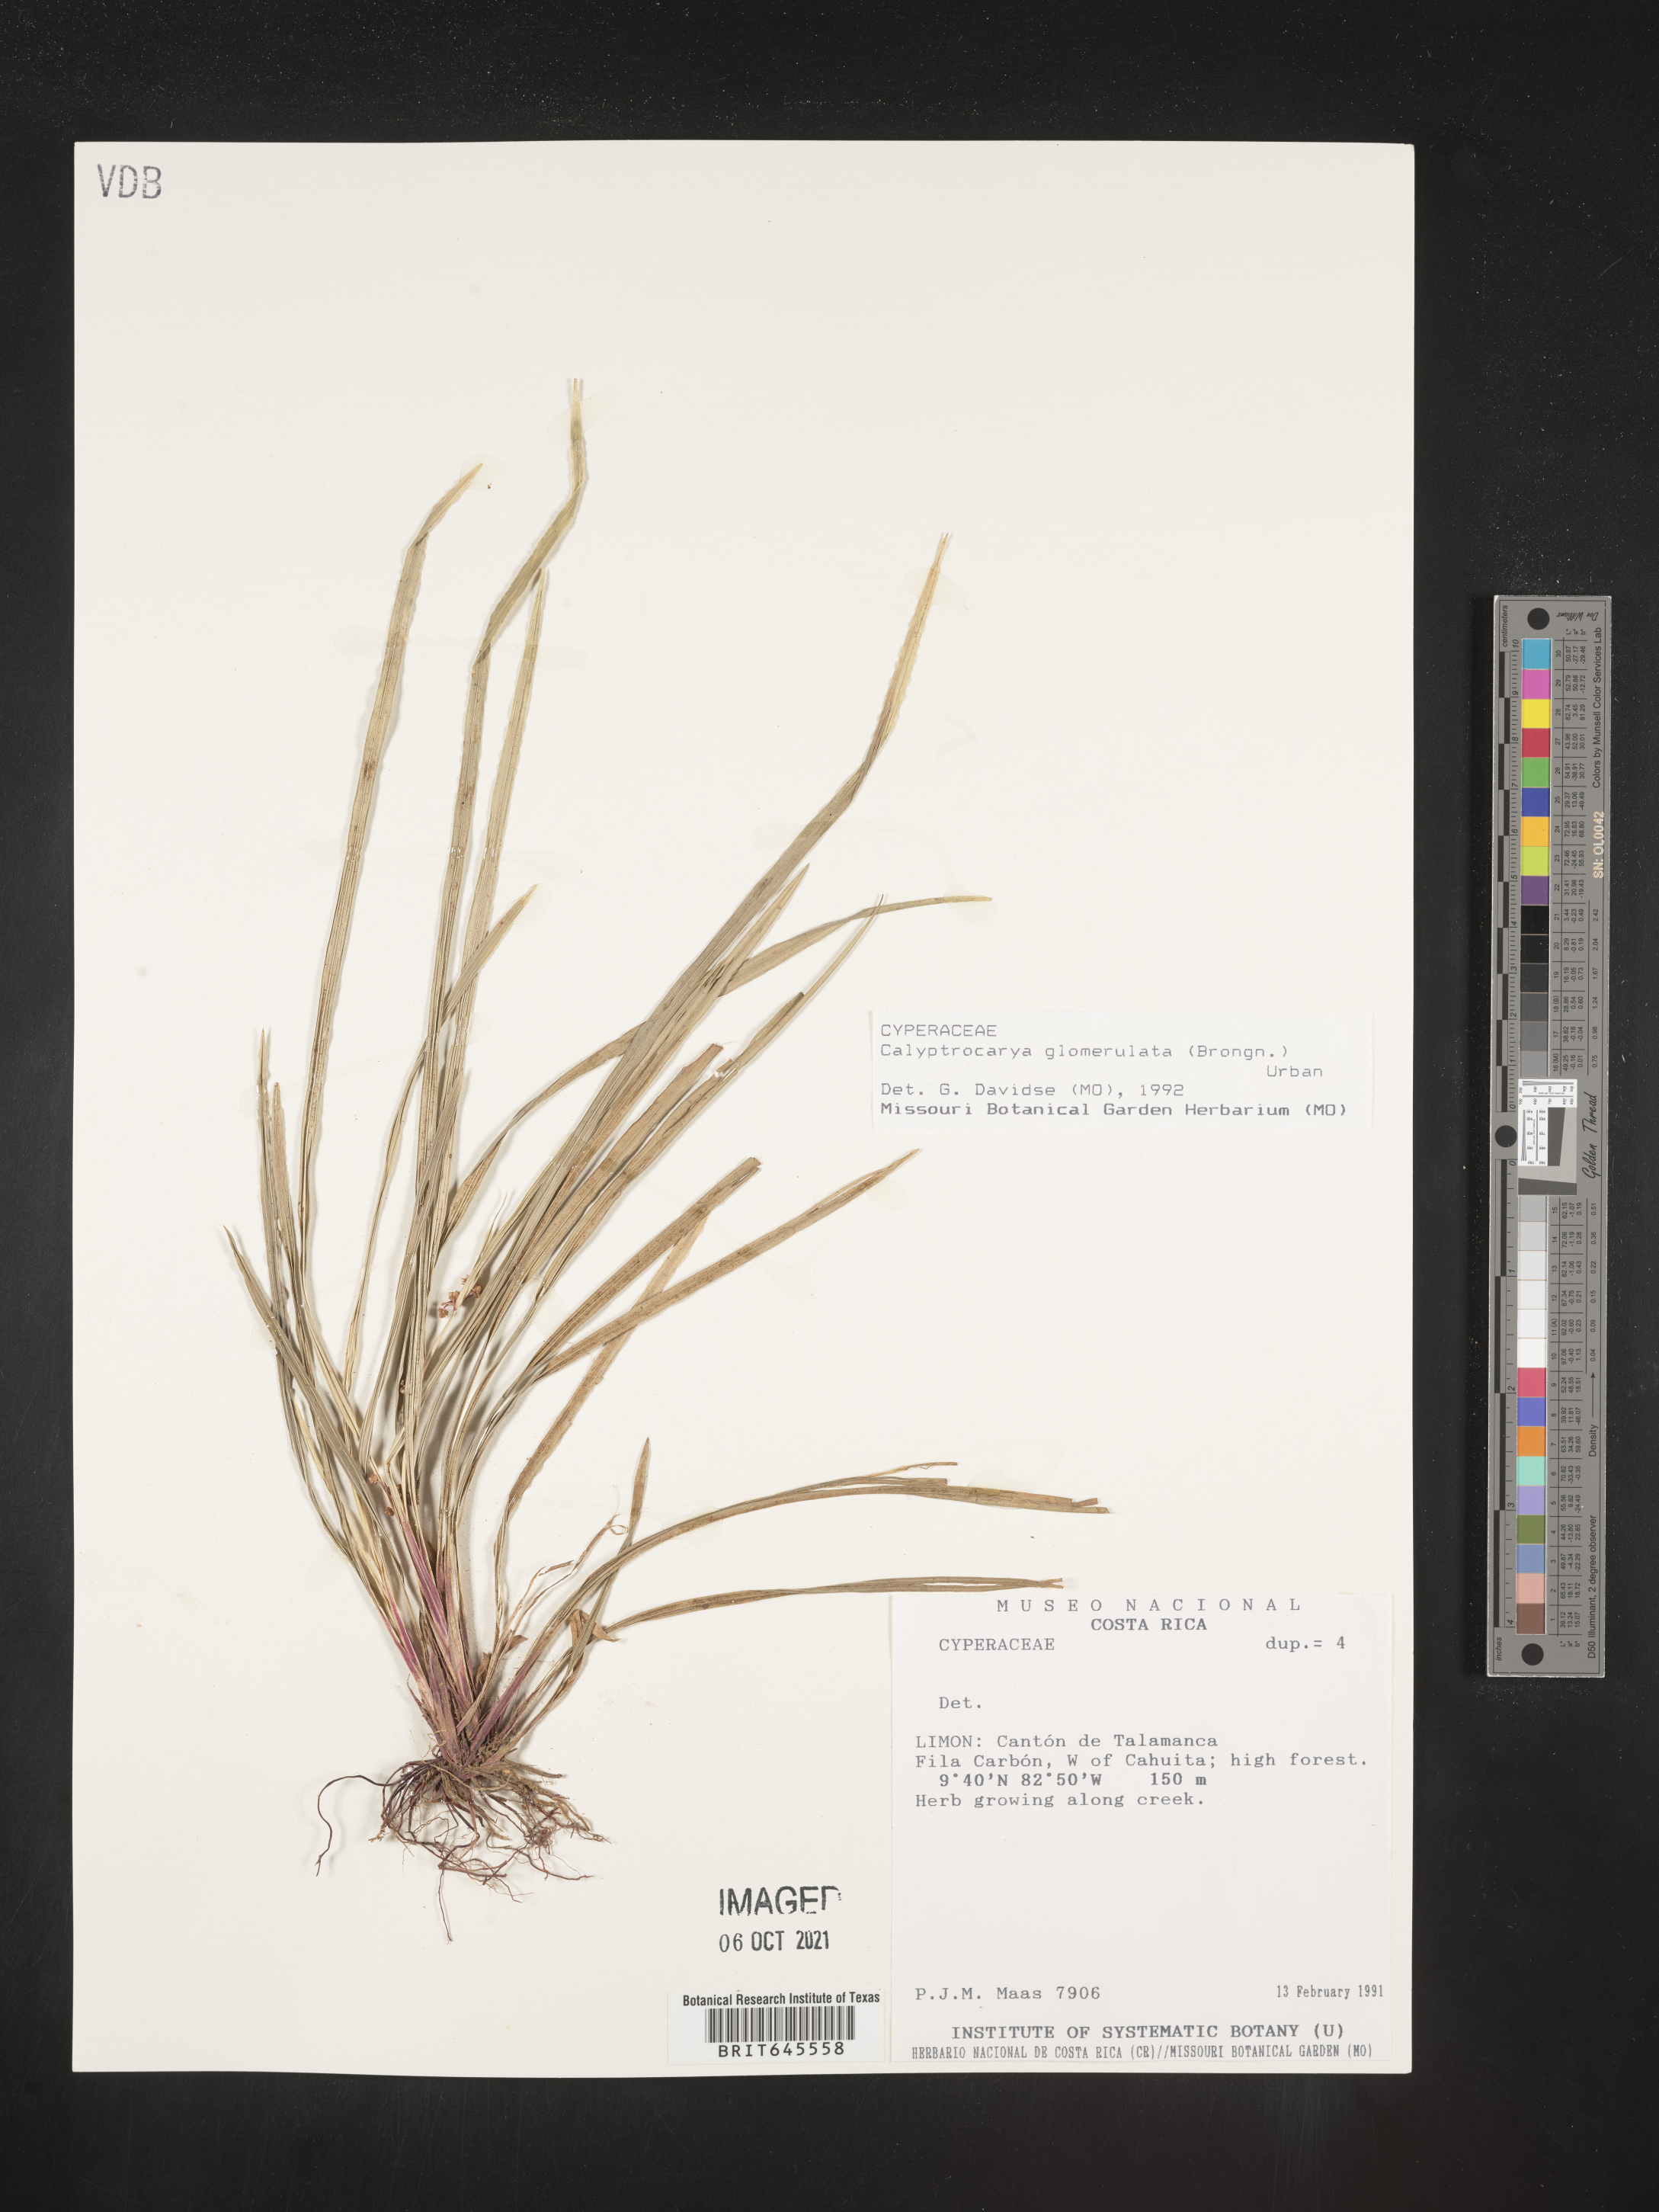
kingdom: Plantae
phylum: Tracheophyta
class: Liliopsida
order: Poales
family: Cyperaceae
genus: Calyptrocarya
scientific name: Calyptrocarya glomerulata
